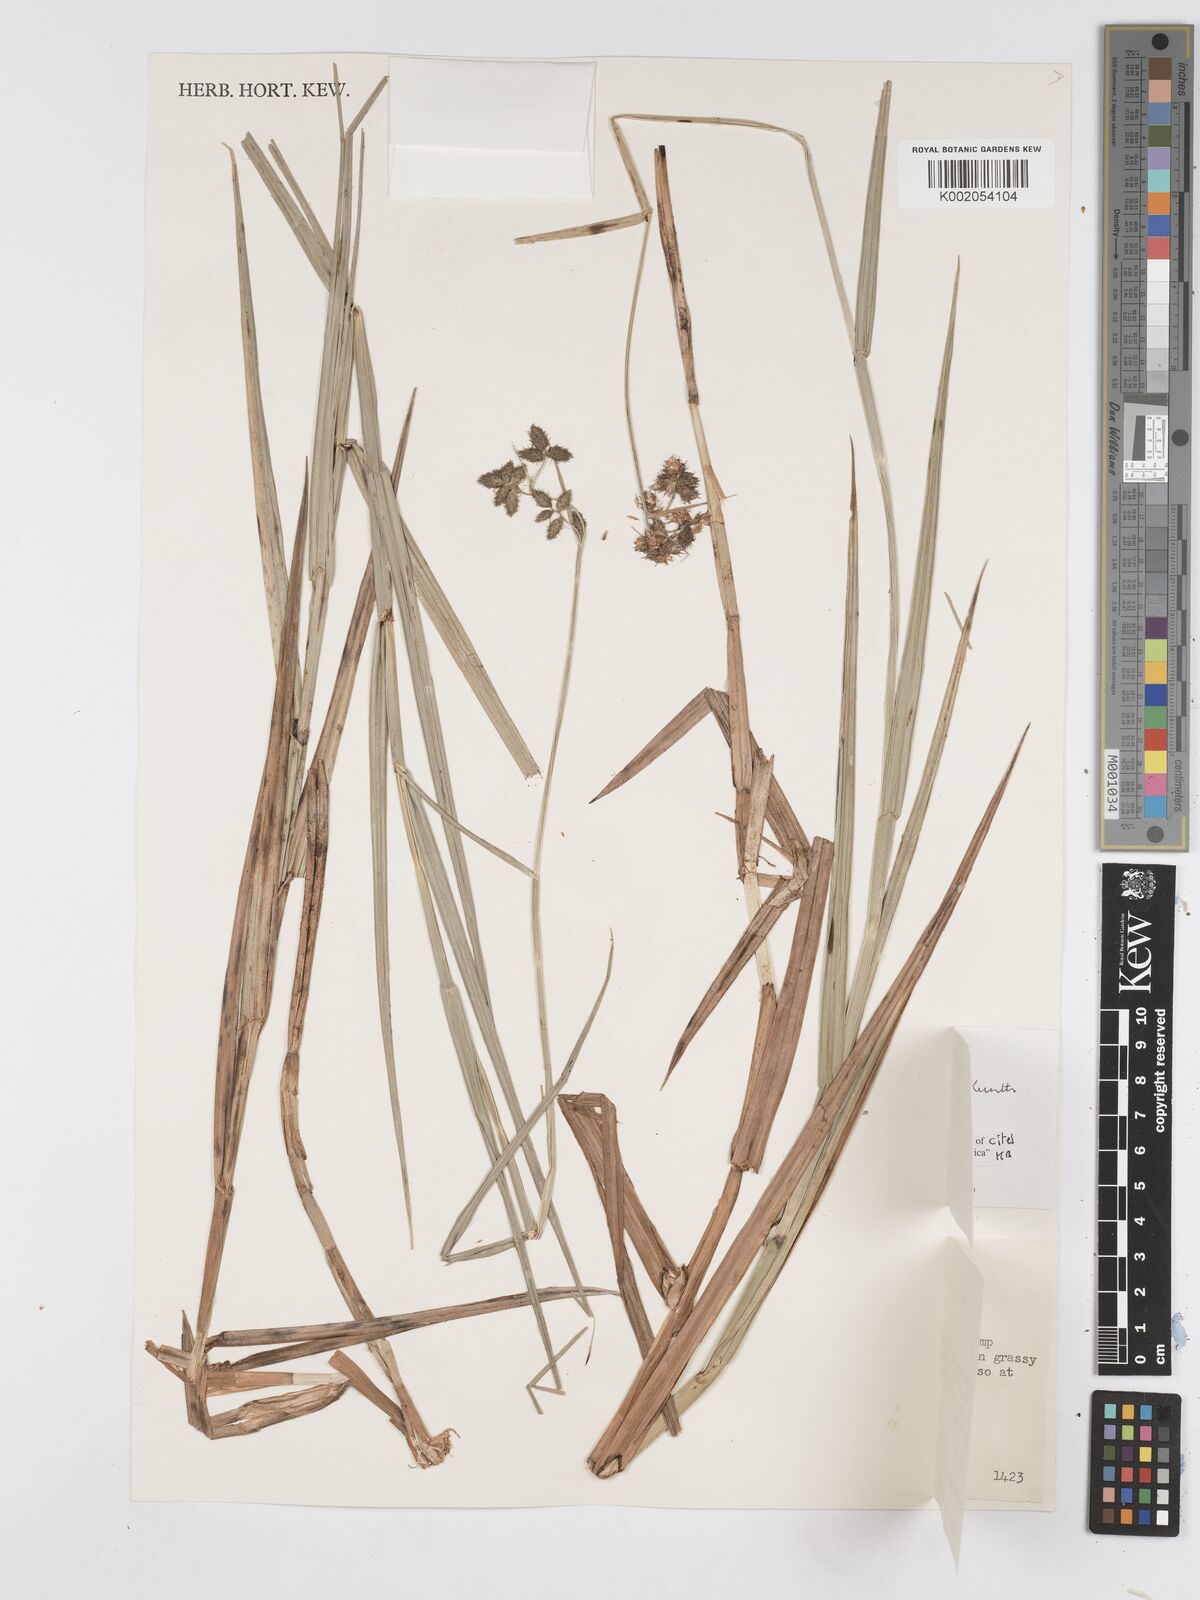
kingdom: Plantae
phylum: Tracheophyta
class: Liliopsida
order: Poales
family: Cyperaceae
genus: Fuirena
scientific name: Fuirena pubescens
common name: Hairy sedge
